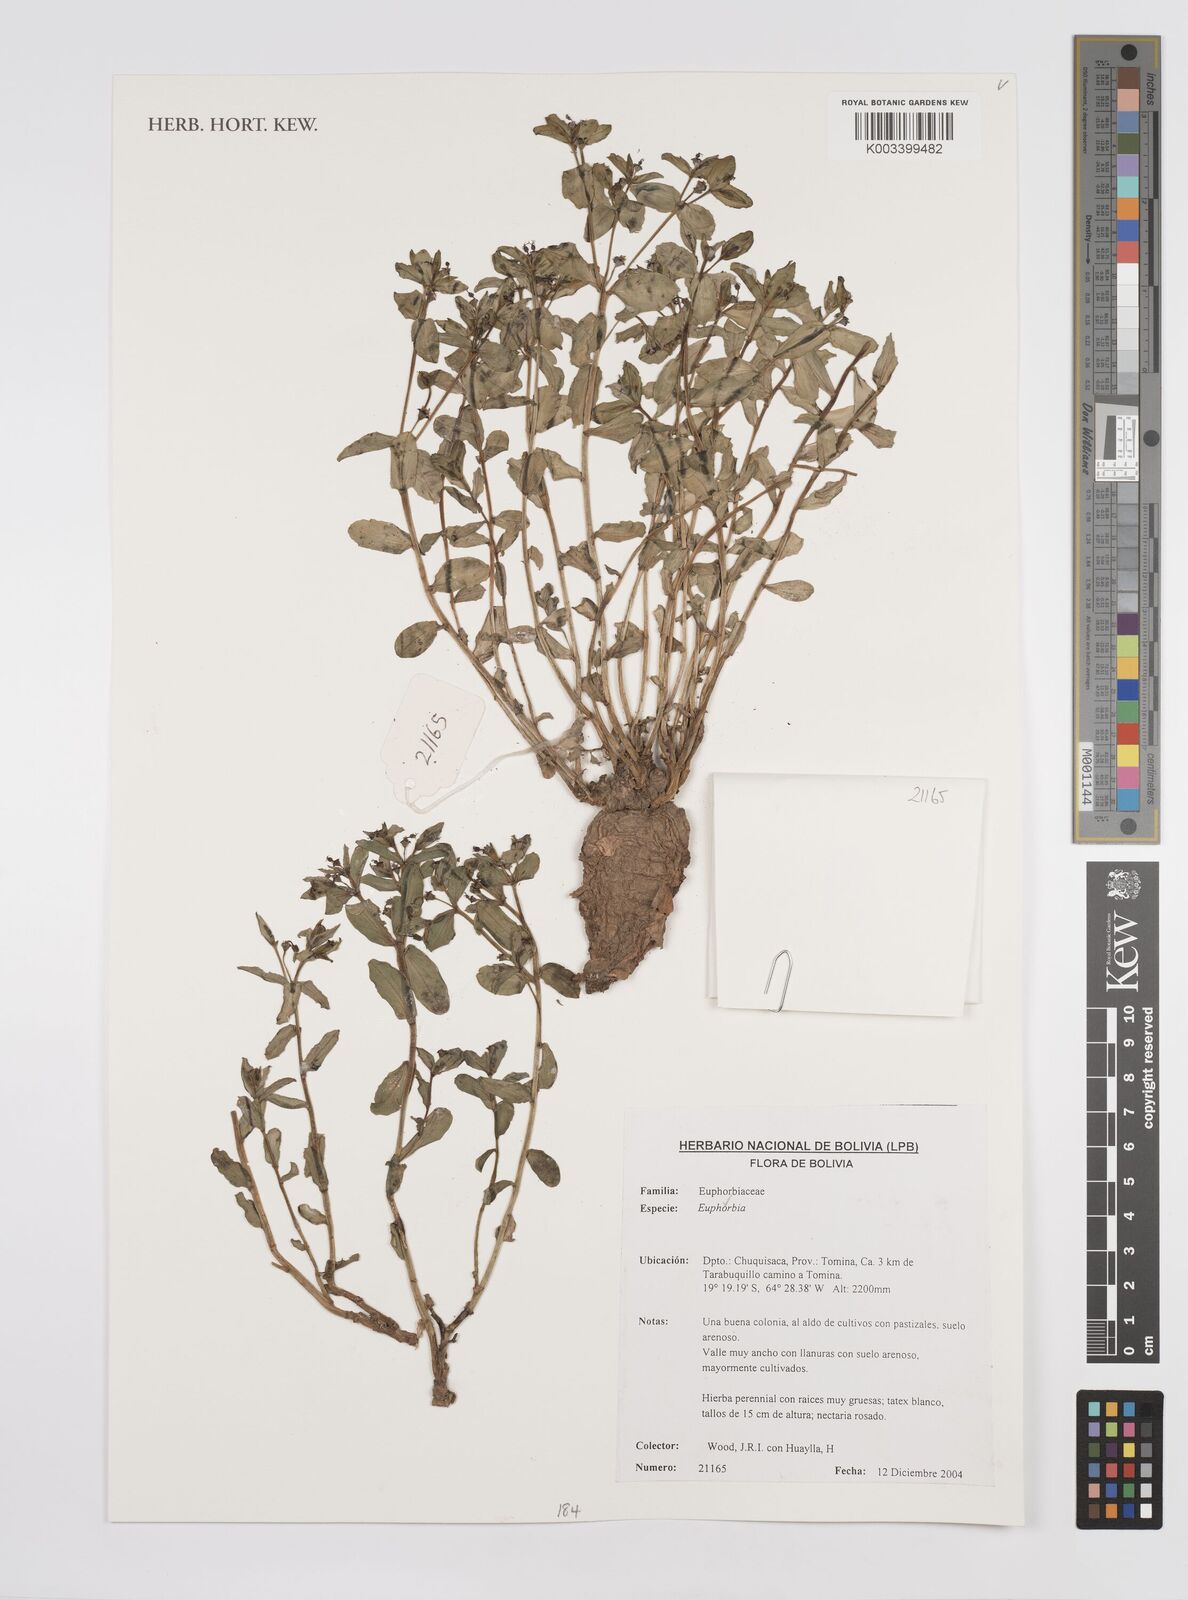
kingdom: Plantae
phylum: Tracheophyta
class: Magnoliopsida
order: Malpighiales
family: Euphorbiaceae
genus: Euphorbia
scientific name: Euphorbia
